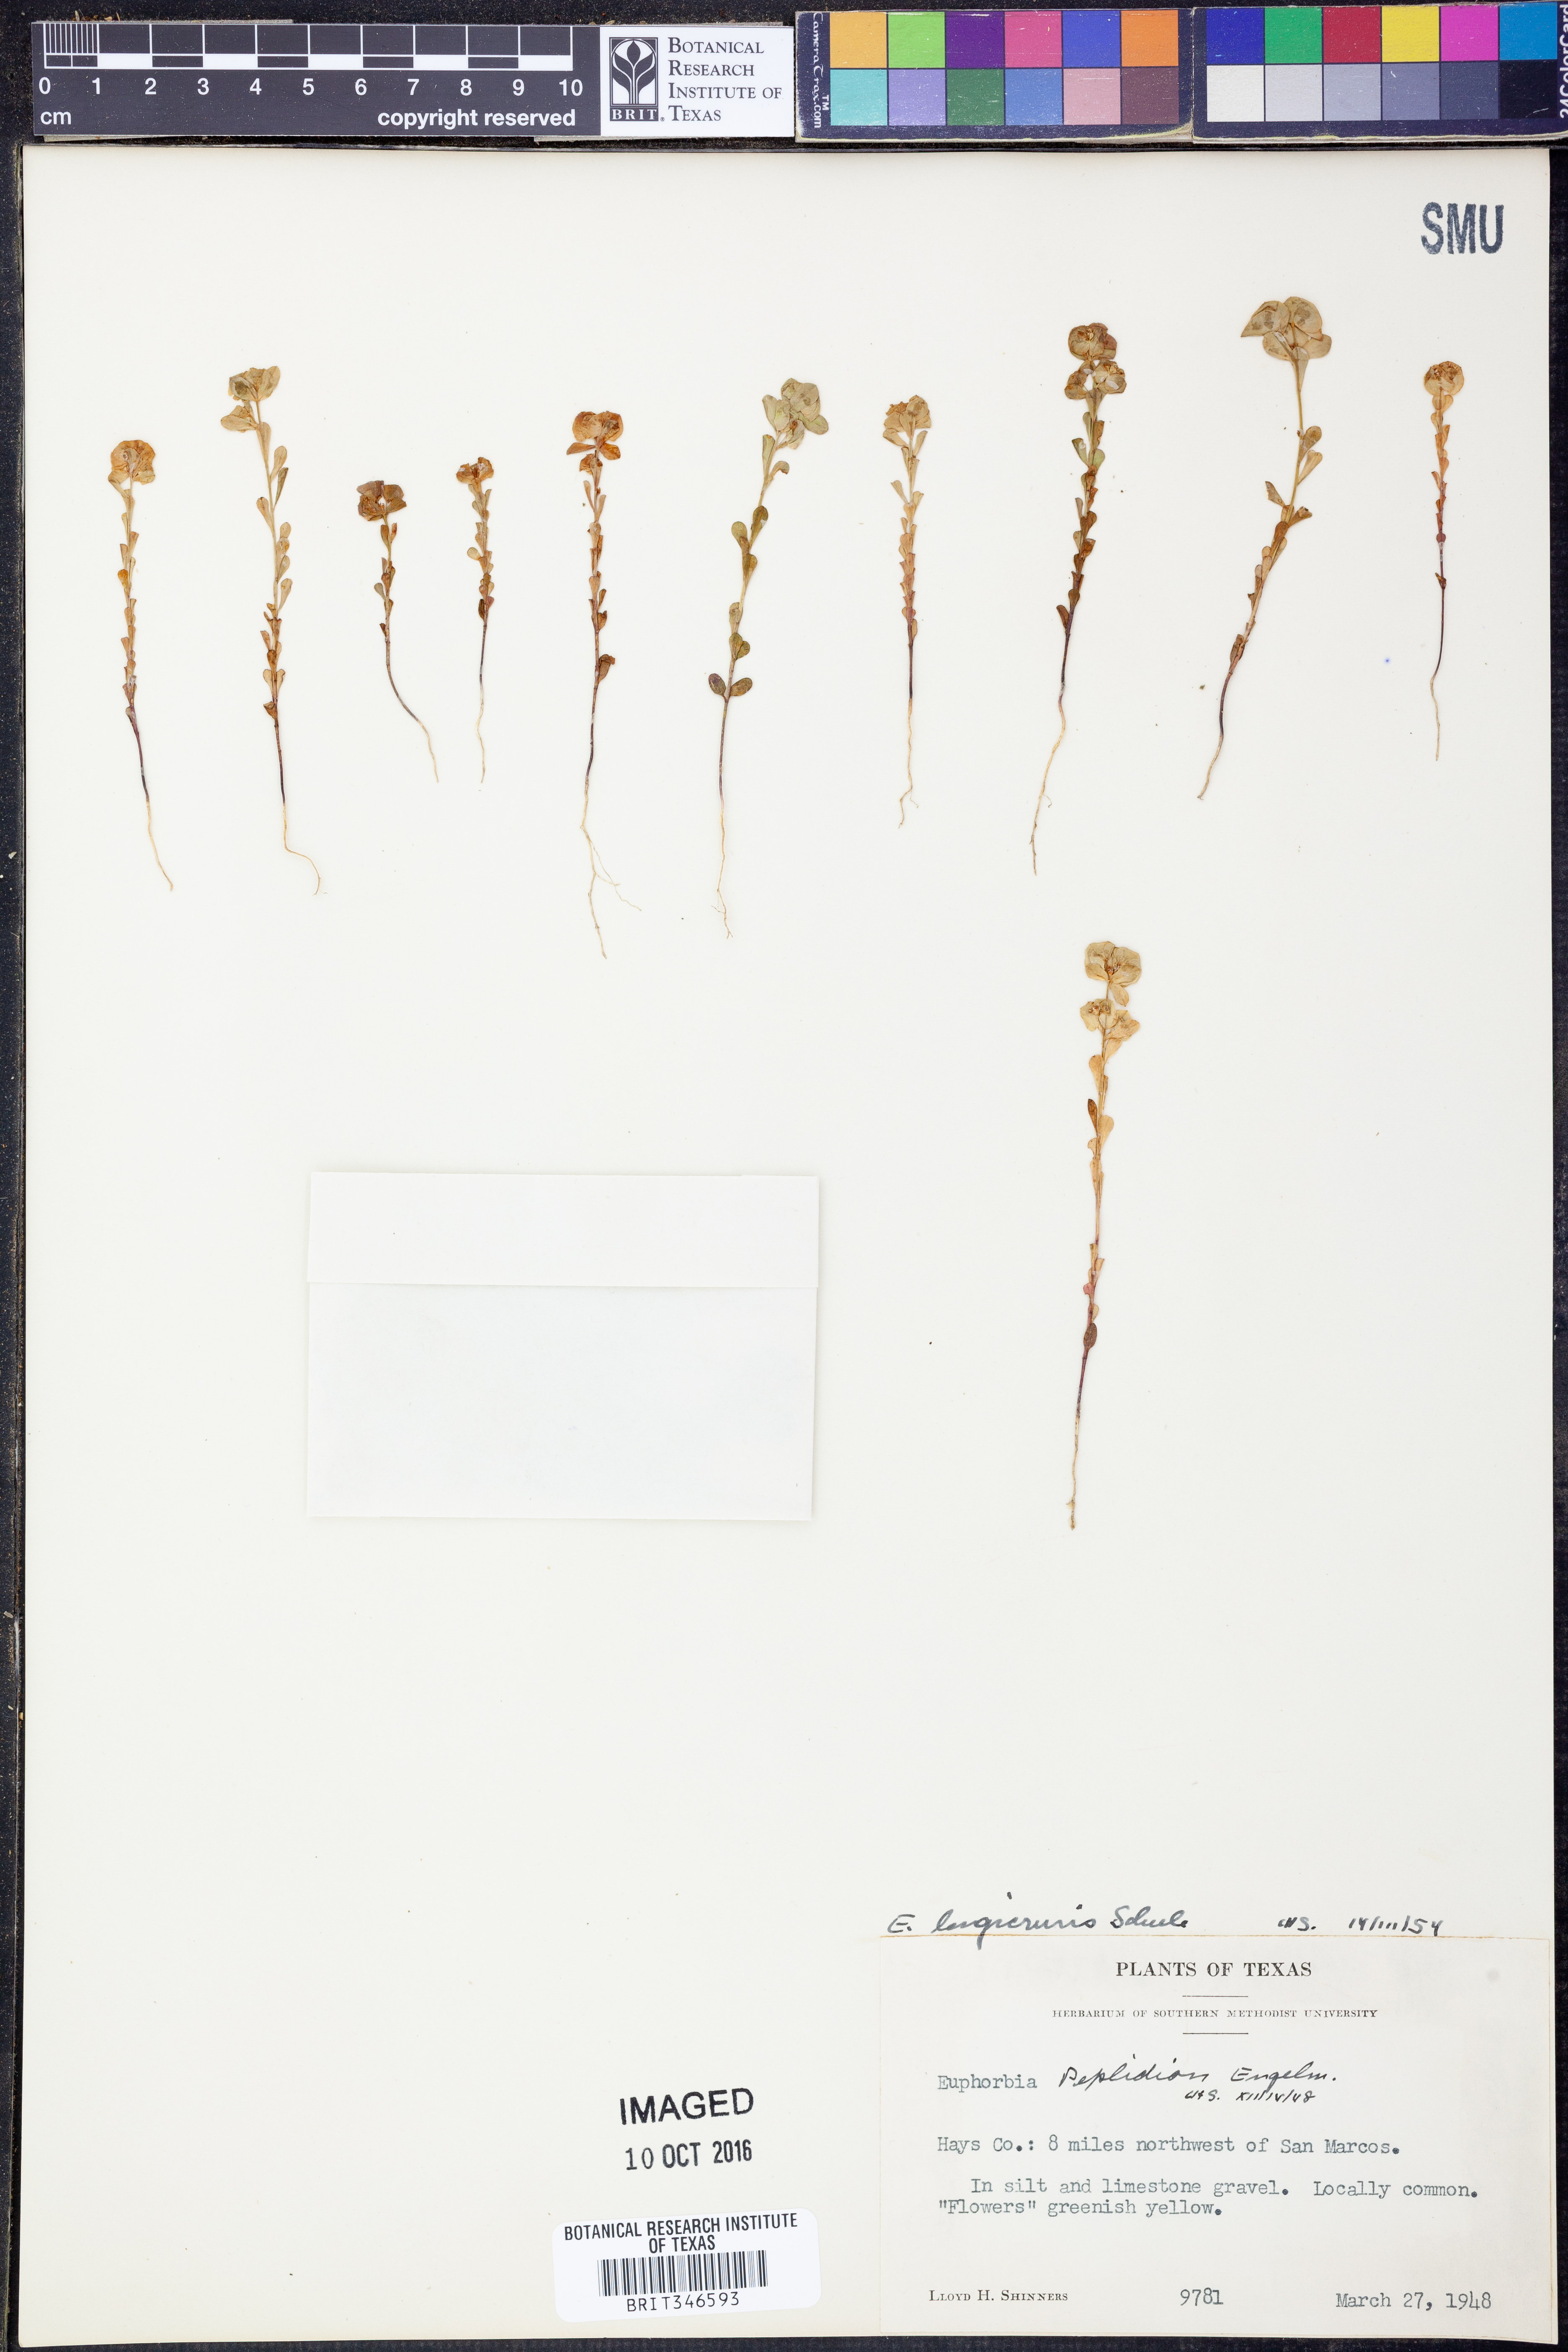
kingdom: Plantae
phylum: Tracheophyta
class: Magnoliopsida
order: Malpighiales
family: Euphorbiaceae
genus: Euphorbia
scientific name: Euphorbia longicruris
